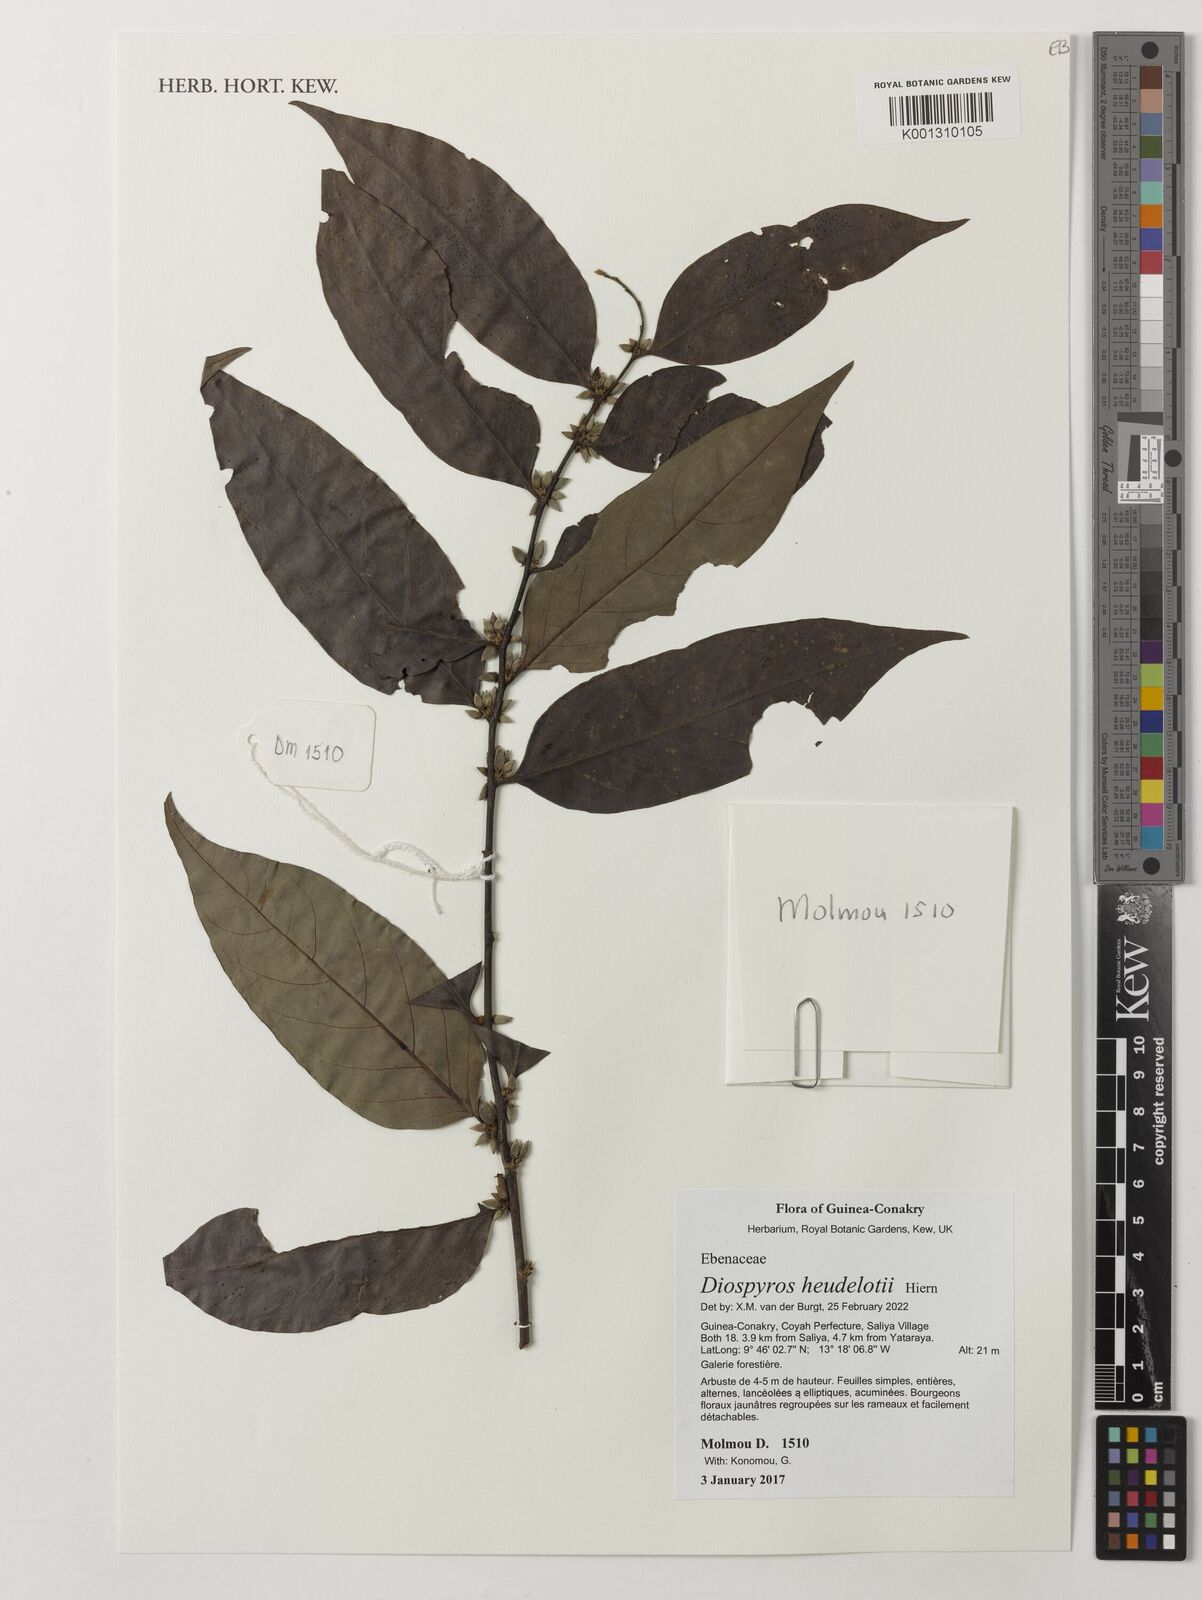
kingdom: Plantae
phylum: Tracheophyta
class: Magnoliopsida
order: Ericales
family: Ebenaceae
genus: Diospyros
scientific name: Diospyros heudelotii
